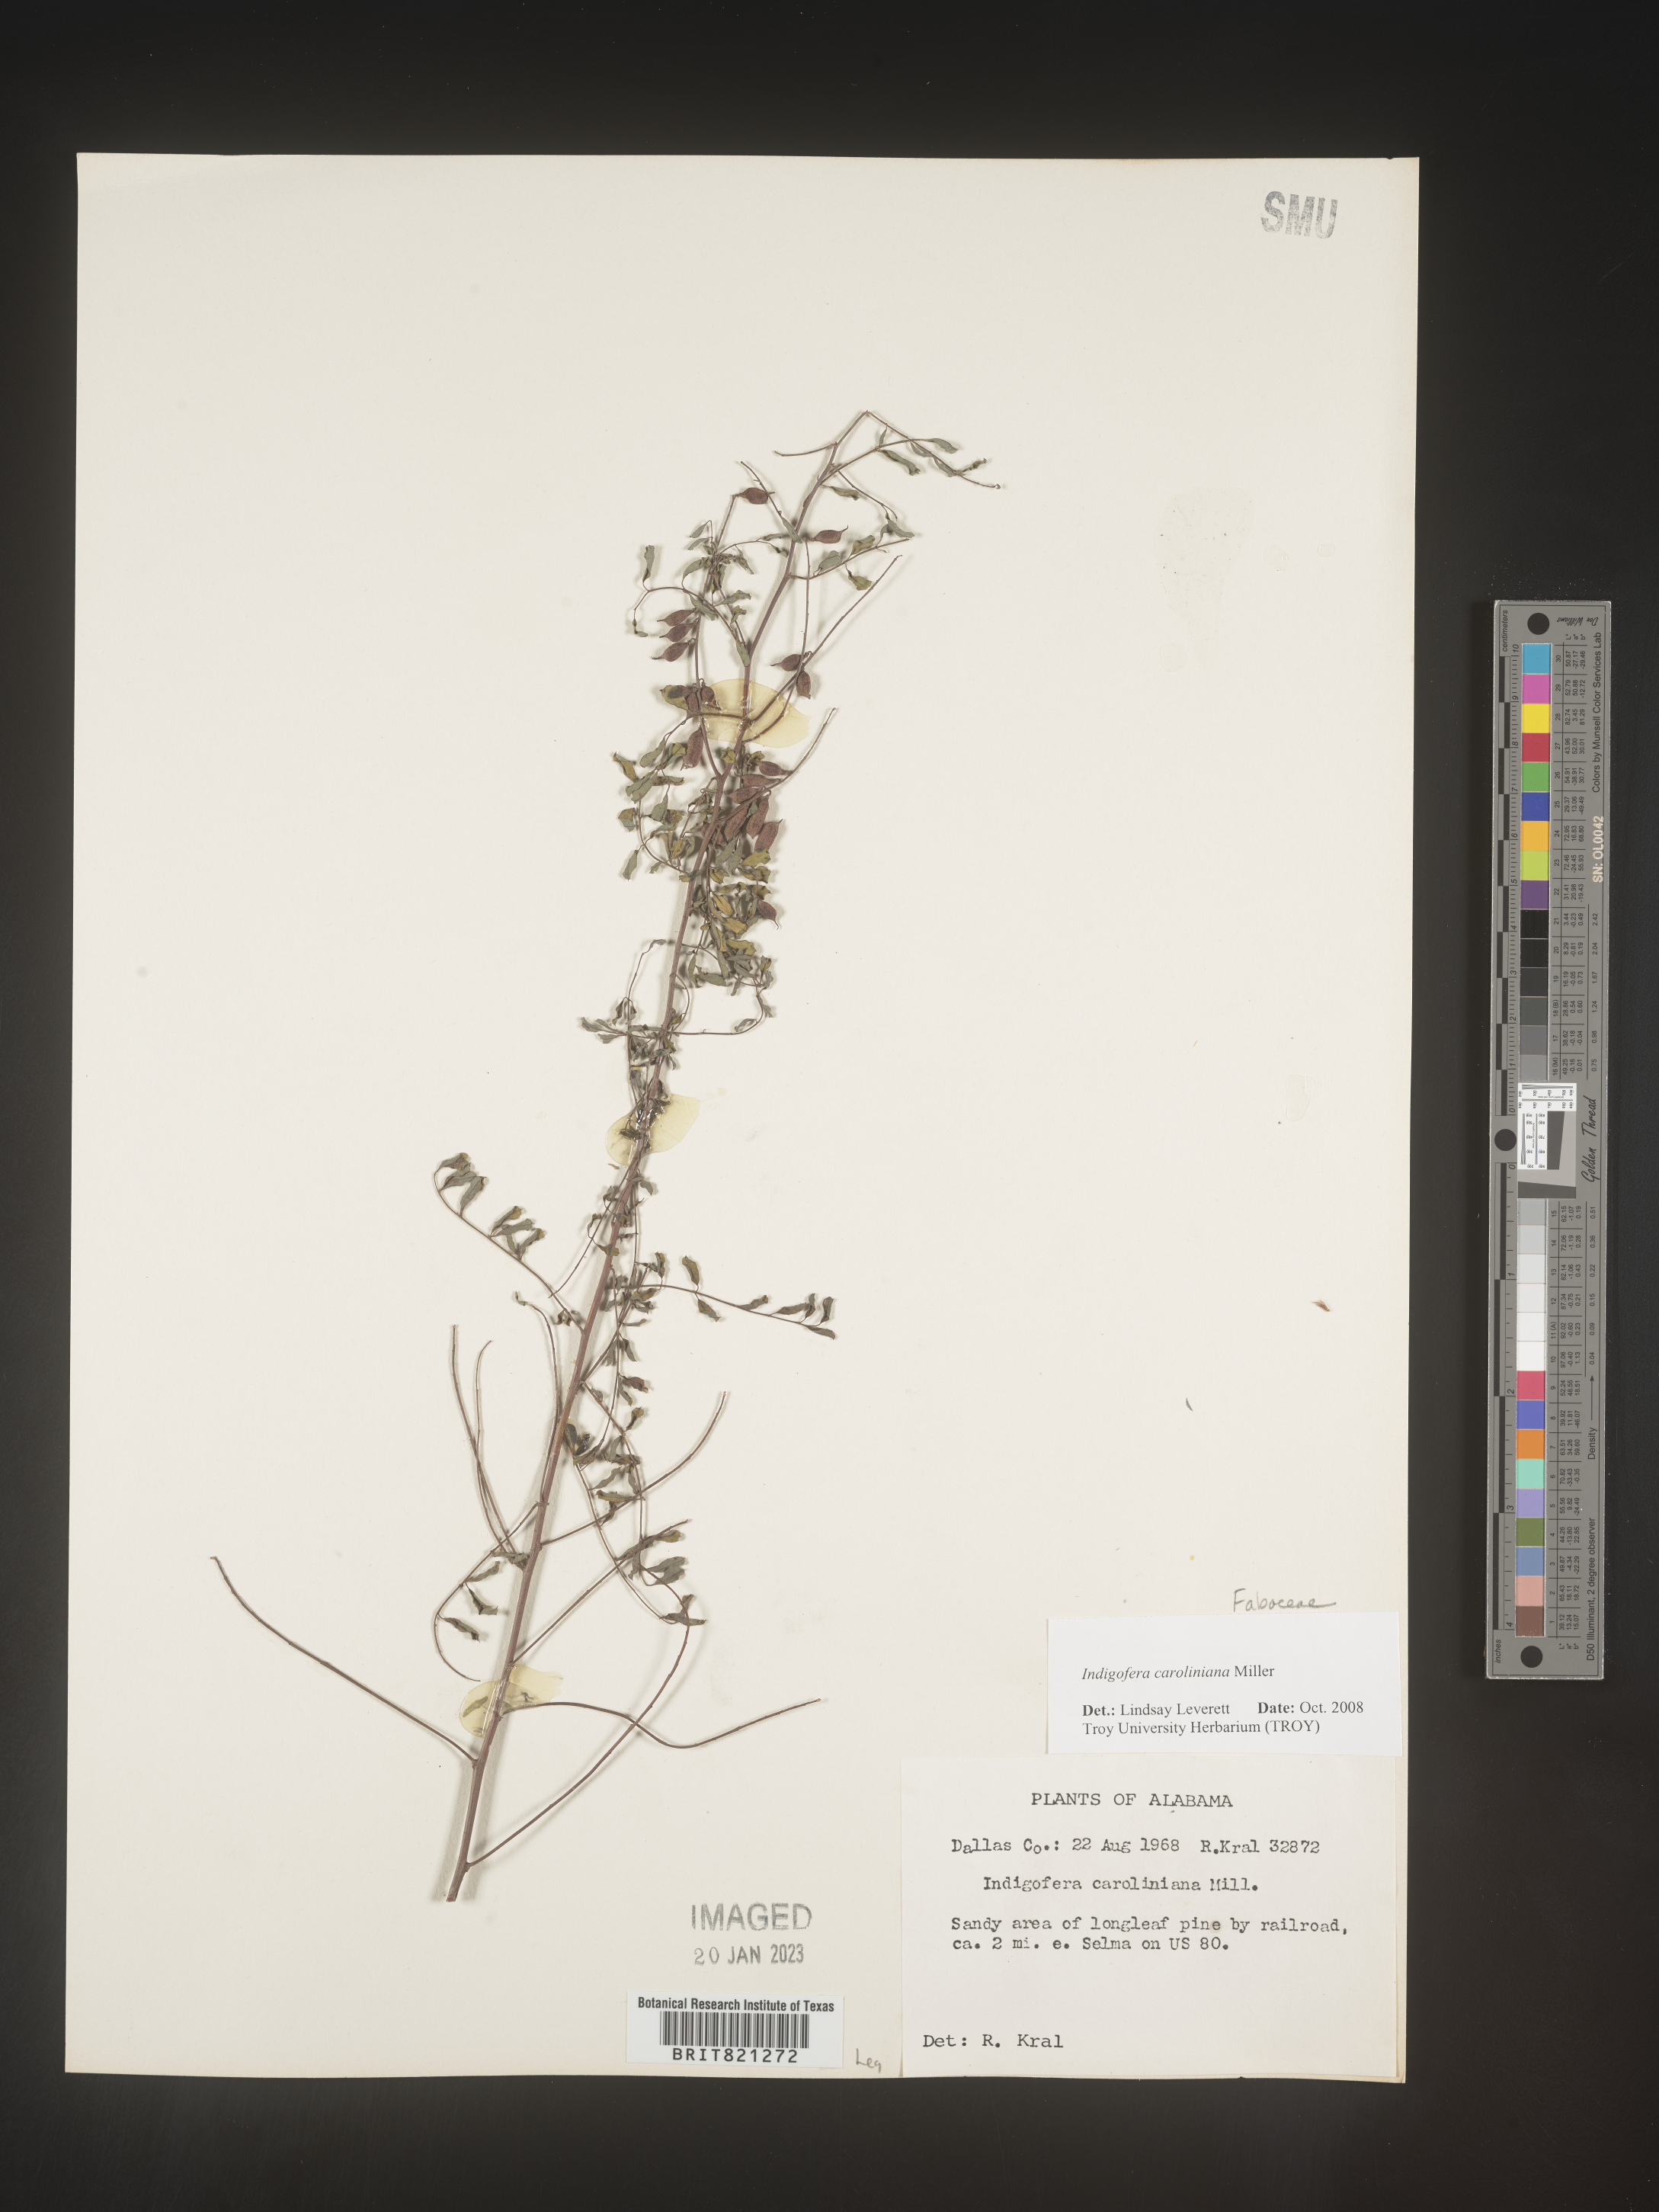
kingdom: Plantae
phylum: Tracheophyta
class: Magnoliopsida
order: Fabales
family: Fabaceae
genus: Indigofera
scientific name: Indigofera
